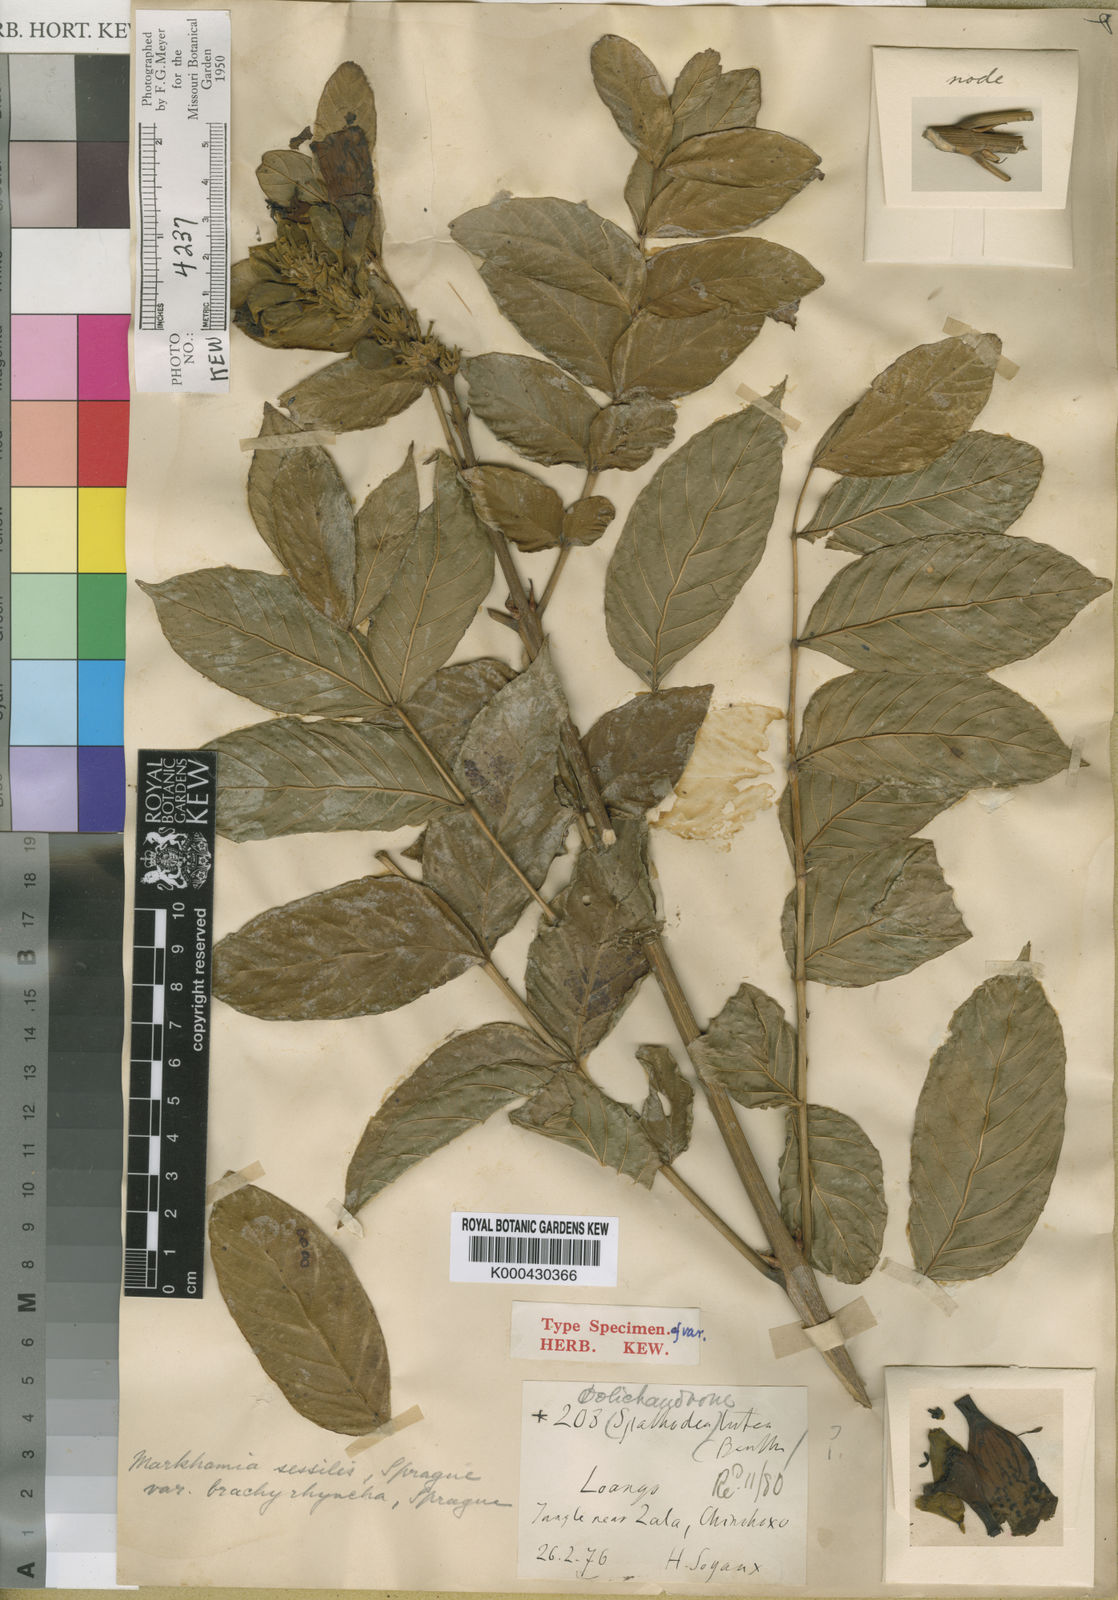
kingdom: Plantae
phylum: Tracheophyta
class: Magnoliopsida
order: Lamiales
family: Bignoniaceae
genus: Markhamia
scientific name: Markhamia tomentosa
